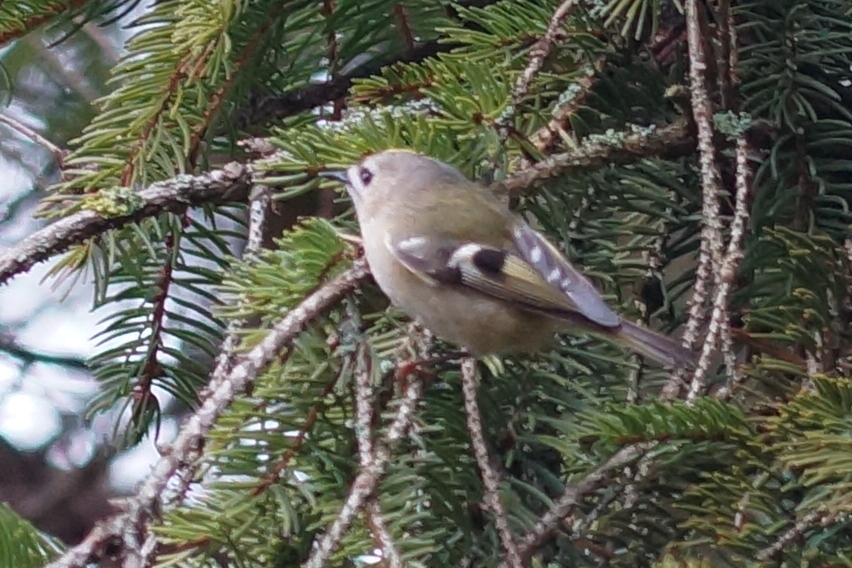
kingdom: Animalia
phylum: Chordata
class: Aves
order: Passeriformes
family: Regulidae
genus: Regulus
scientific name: Regulus regulus
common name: Fuglekonge
